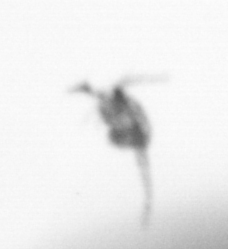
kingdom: Animalia
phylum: Arthropoda
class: Copepoda
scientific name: Copepoda
